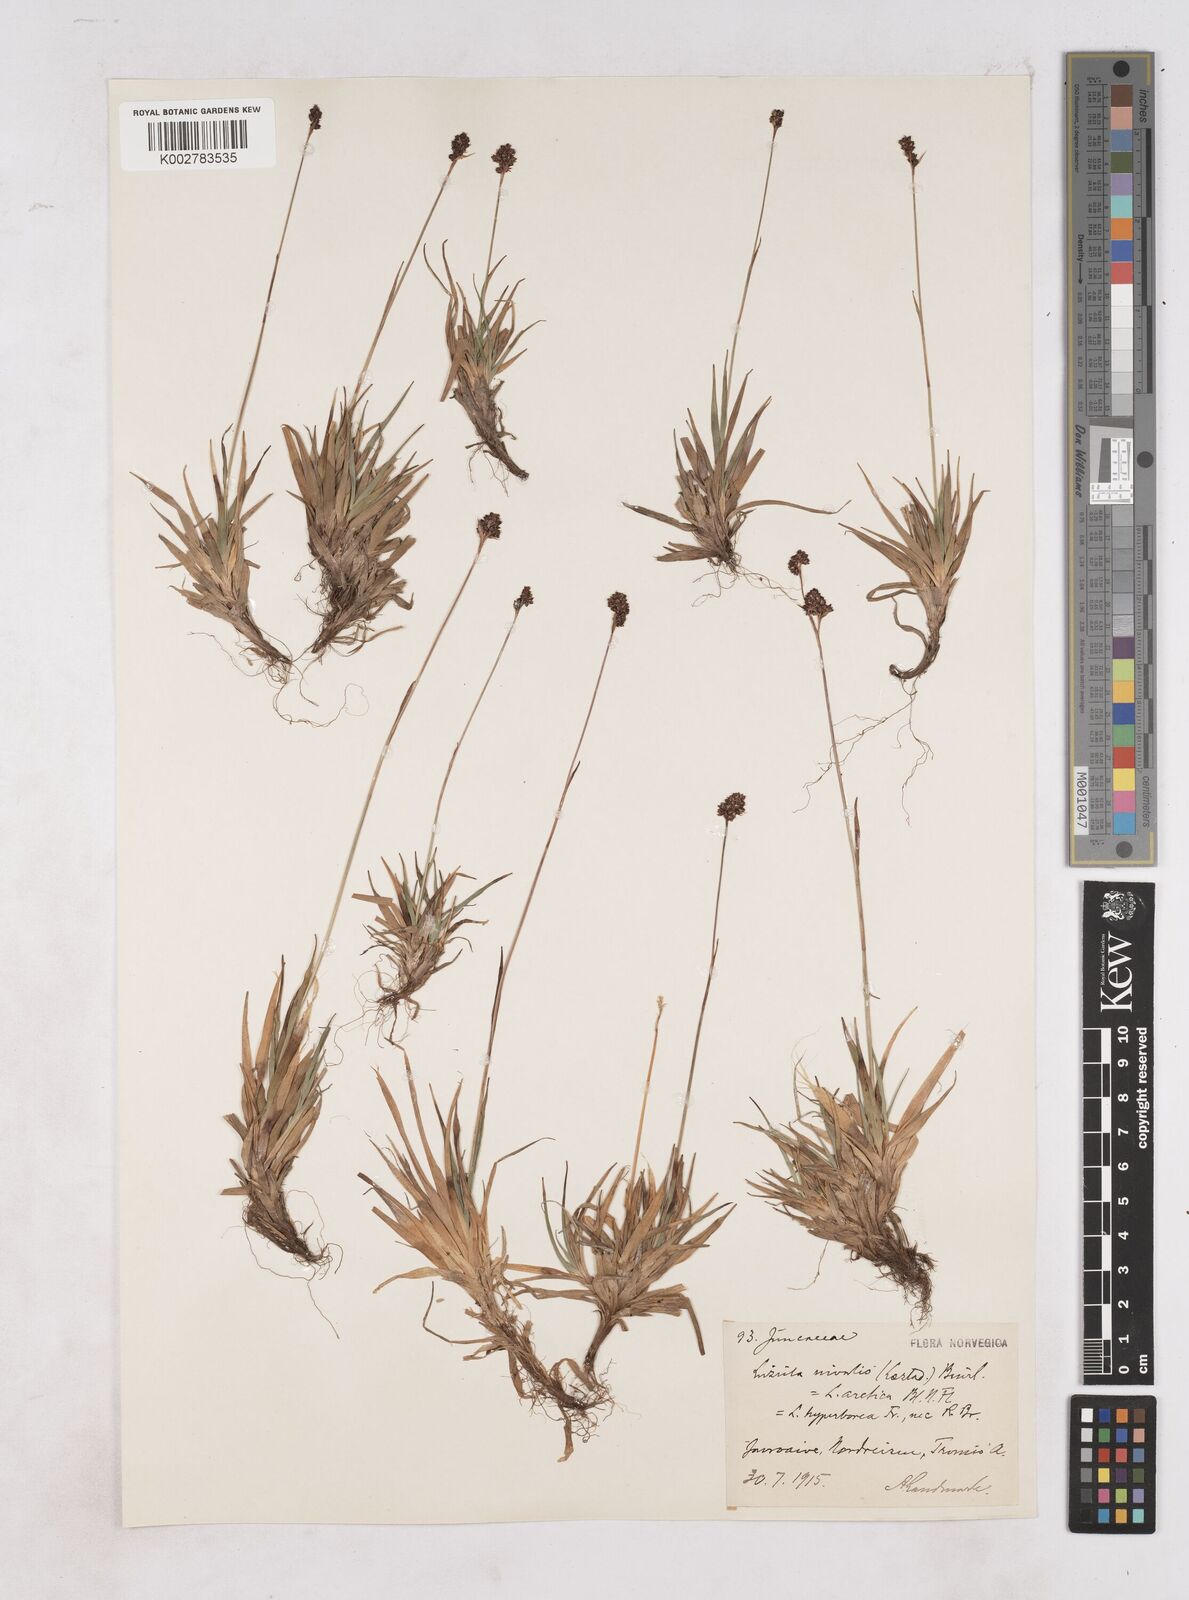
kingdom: Plantae
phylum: Tracheophyta
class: Liliopsida
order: Poales
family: Juncaceae
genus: Luzula
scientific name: Luzula nivalis
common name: Arctic woodrush
